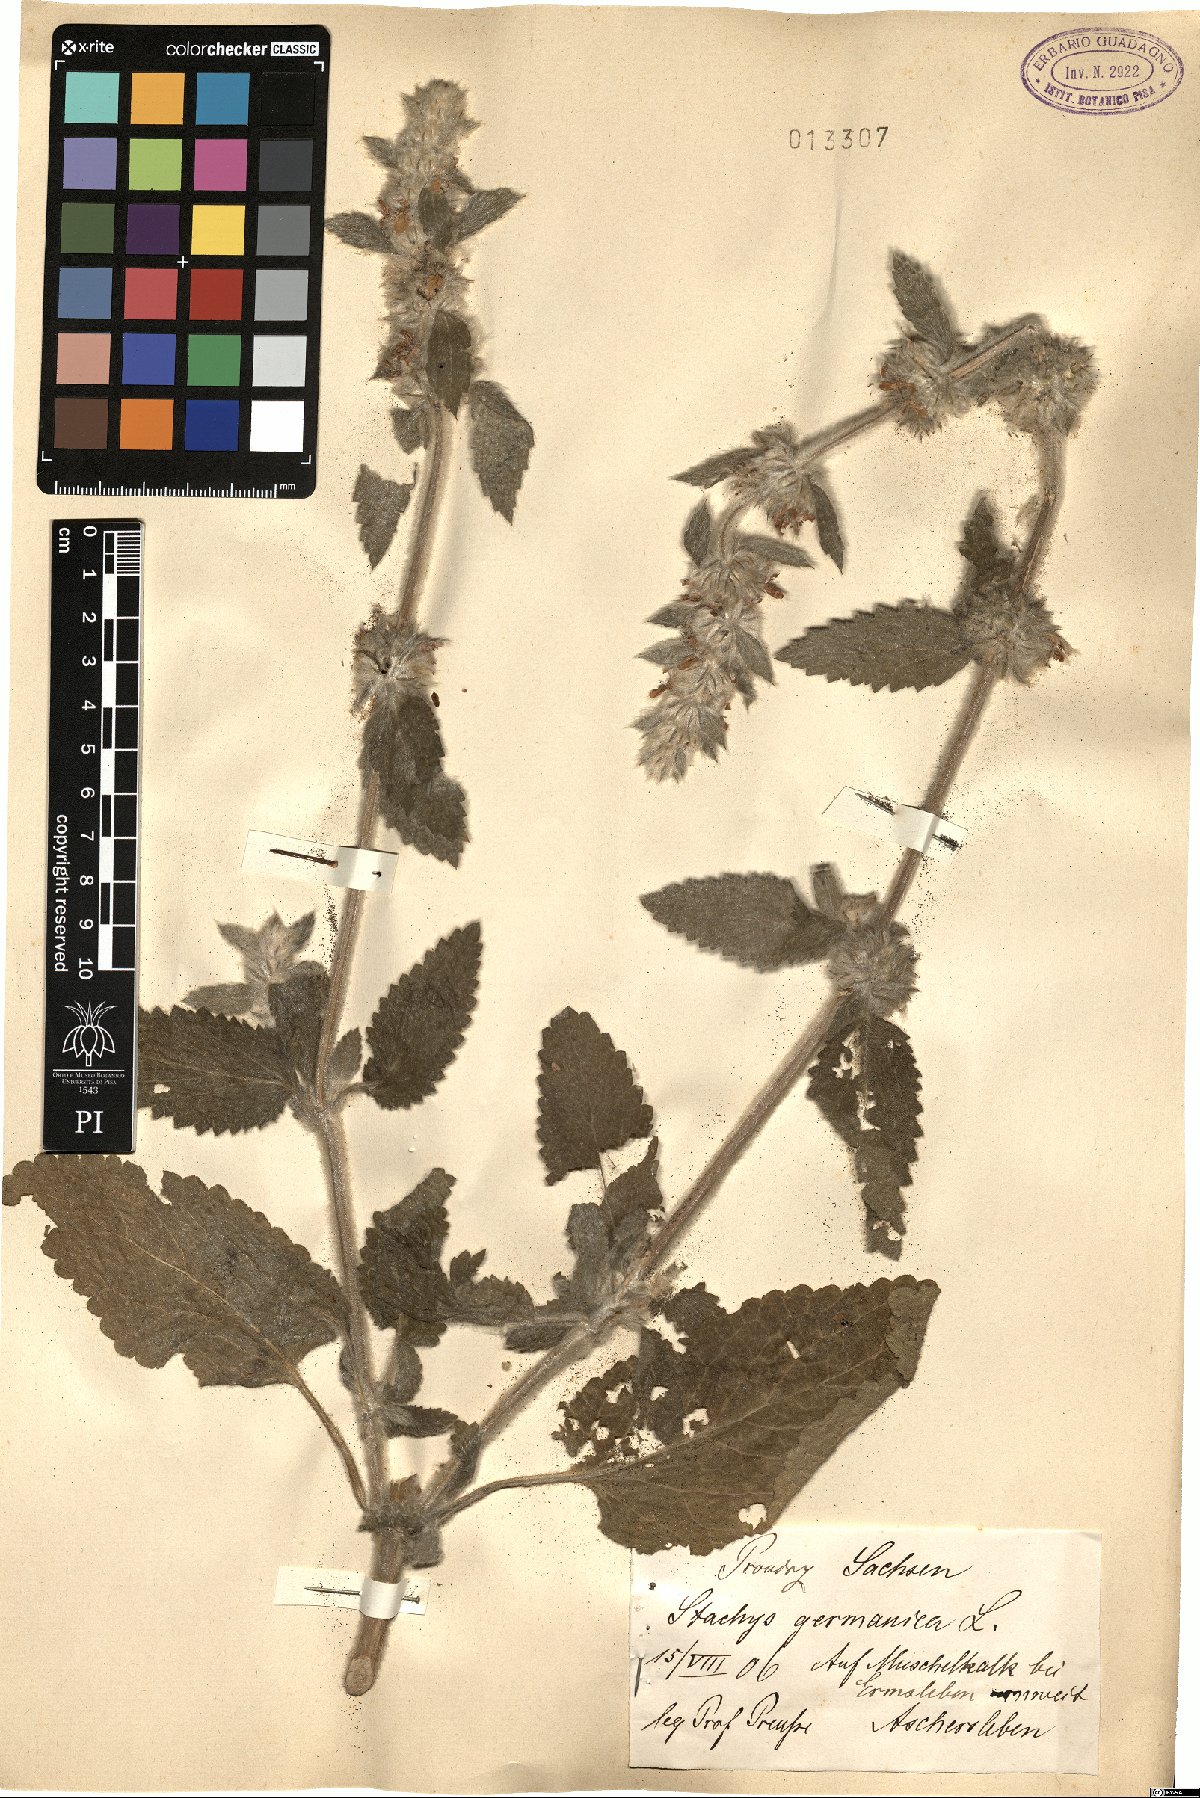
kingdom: Plantae
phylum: Tracheophyta
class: Magnoliopsida
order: Lamiales
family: Lamiaceae
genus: Stachys
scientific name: Stachys germanica
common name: Downy woundwort
